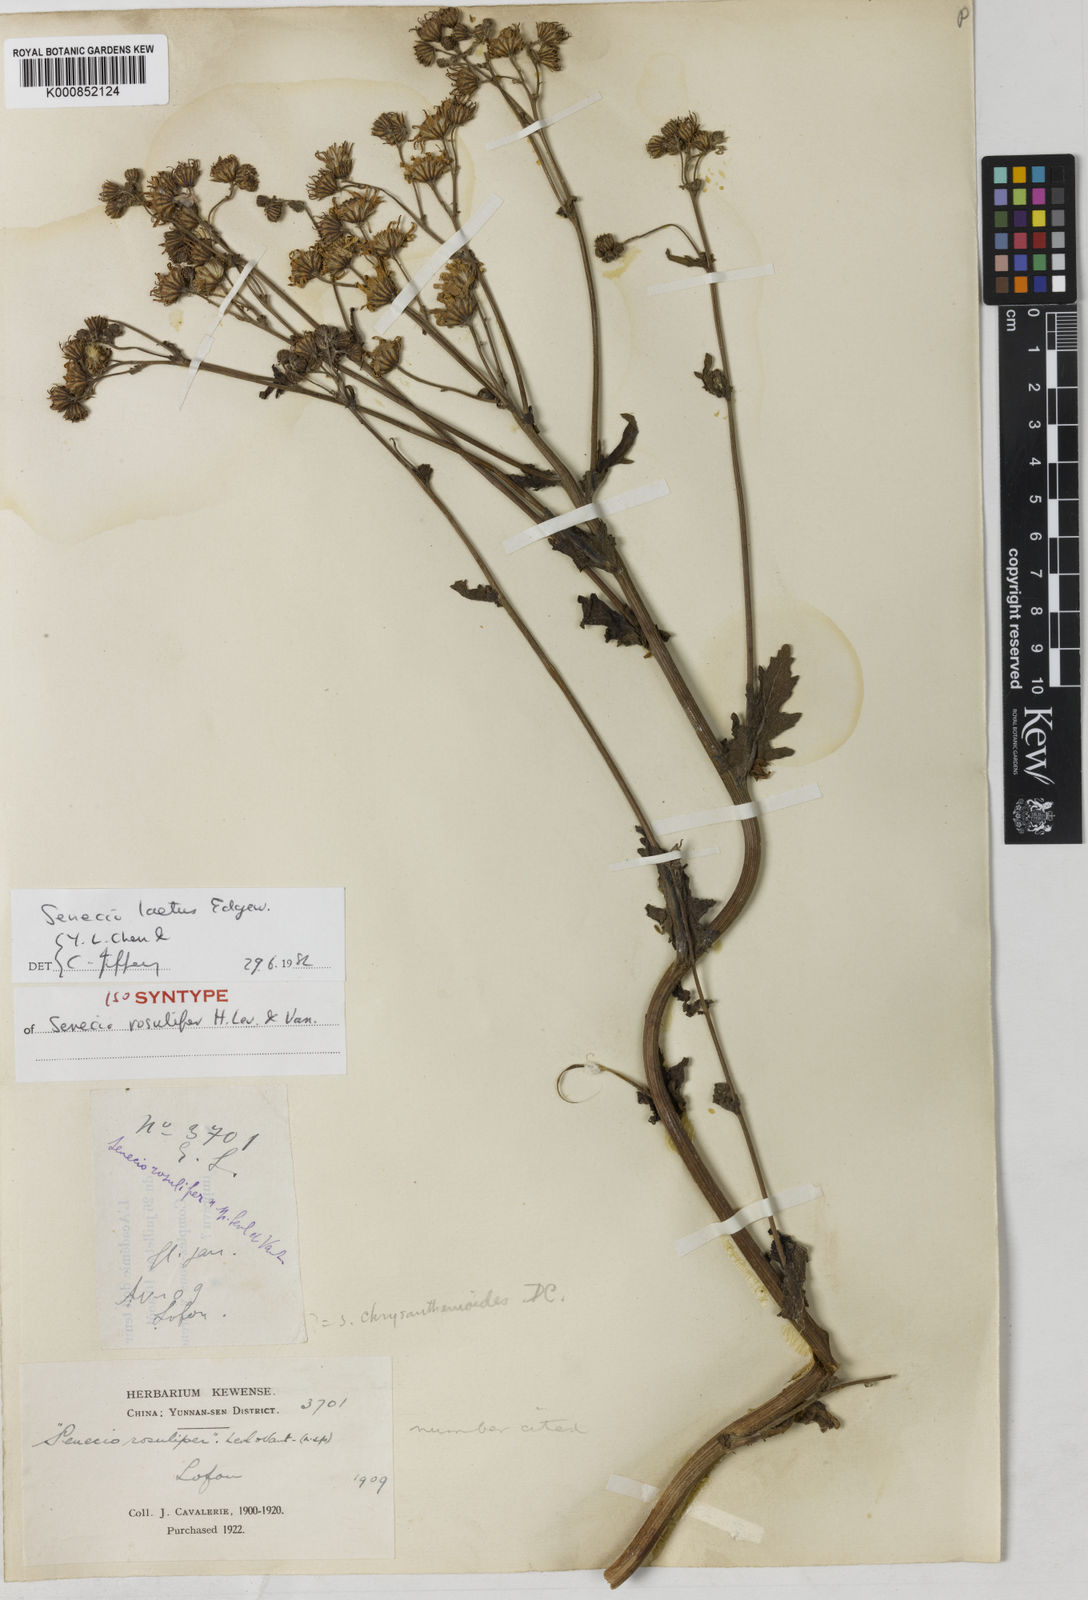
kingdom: Plantae
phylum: Tracheophyta
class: Magnoliopsida
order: Asterales
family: Asteraceae
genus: Jacobaea
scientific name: Jacobaea analoga
